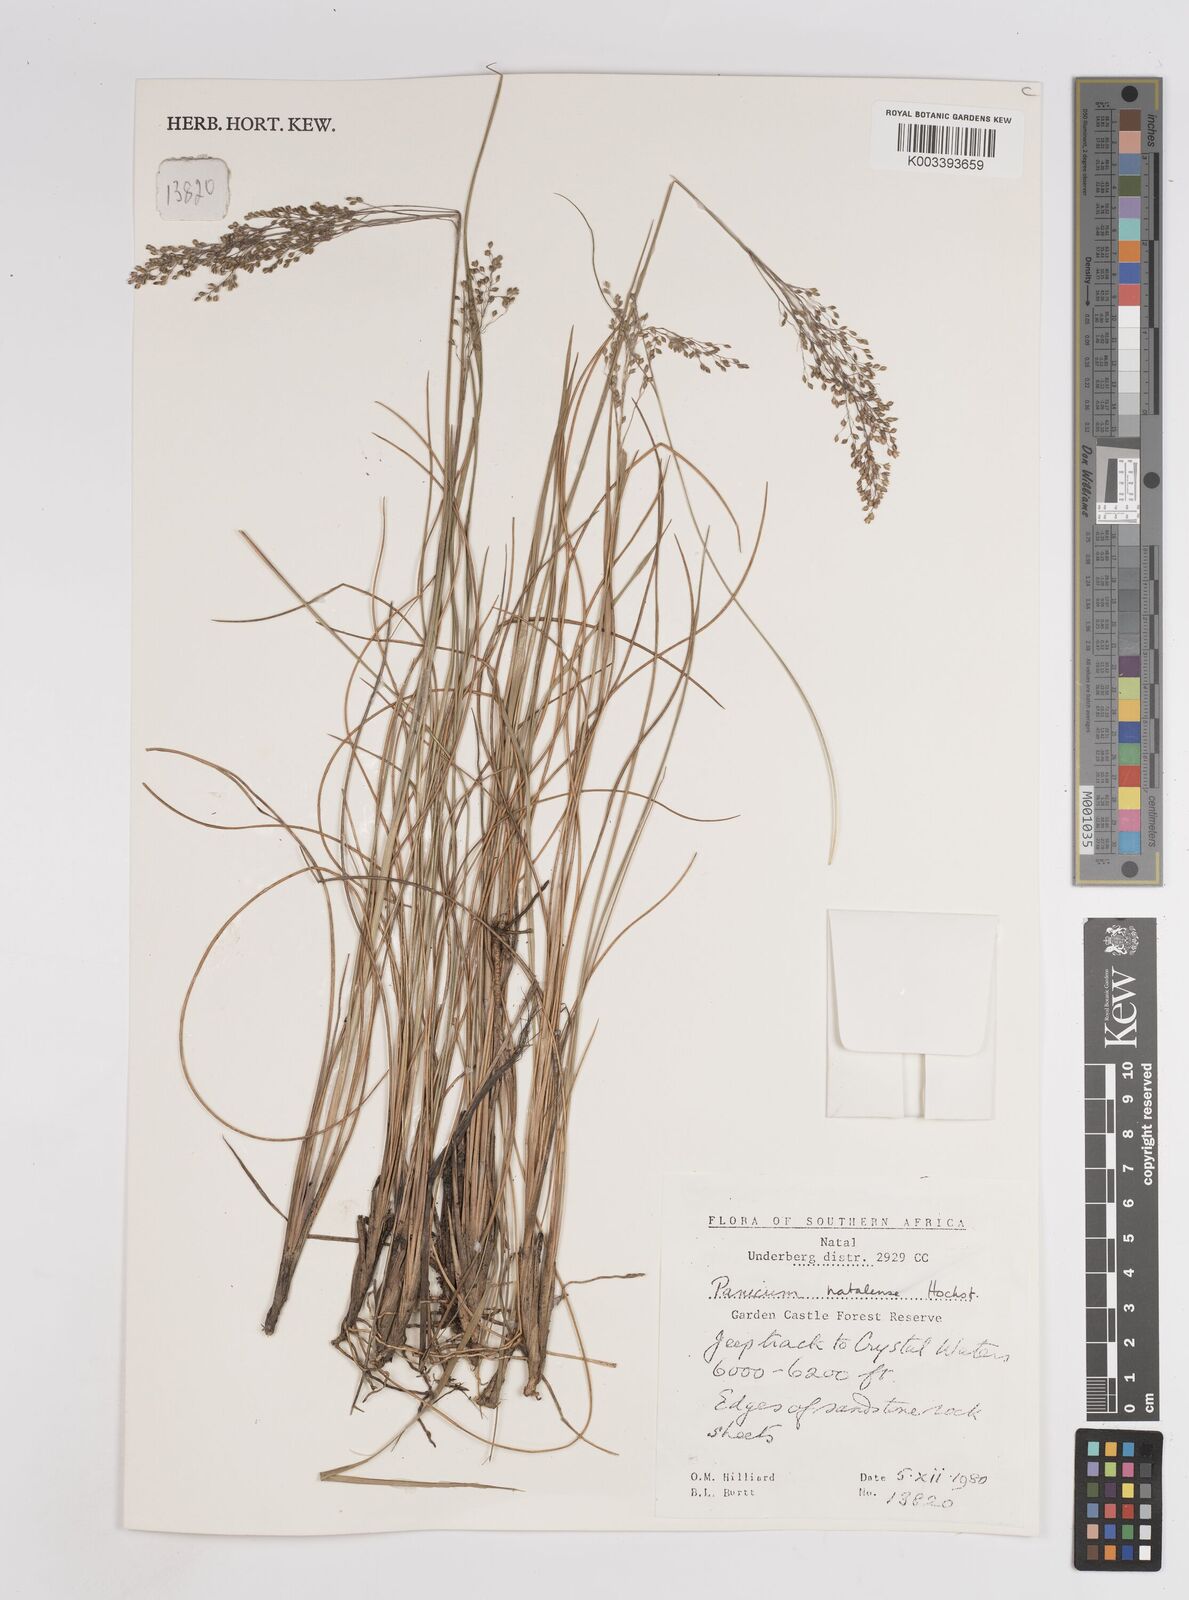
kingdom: Plantae
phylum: Tracheophyta
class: Liliopsida
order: Poales
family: Poaceae
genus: Trichanthecium
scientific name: Trichanthecium natalense
